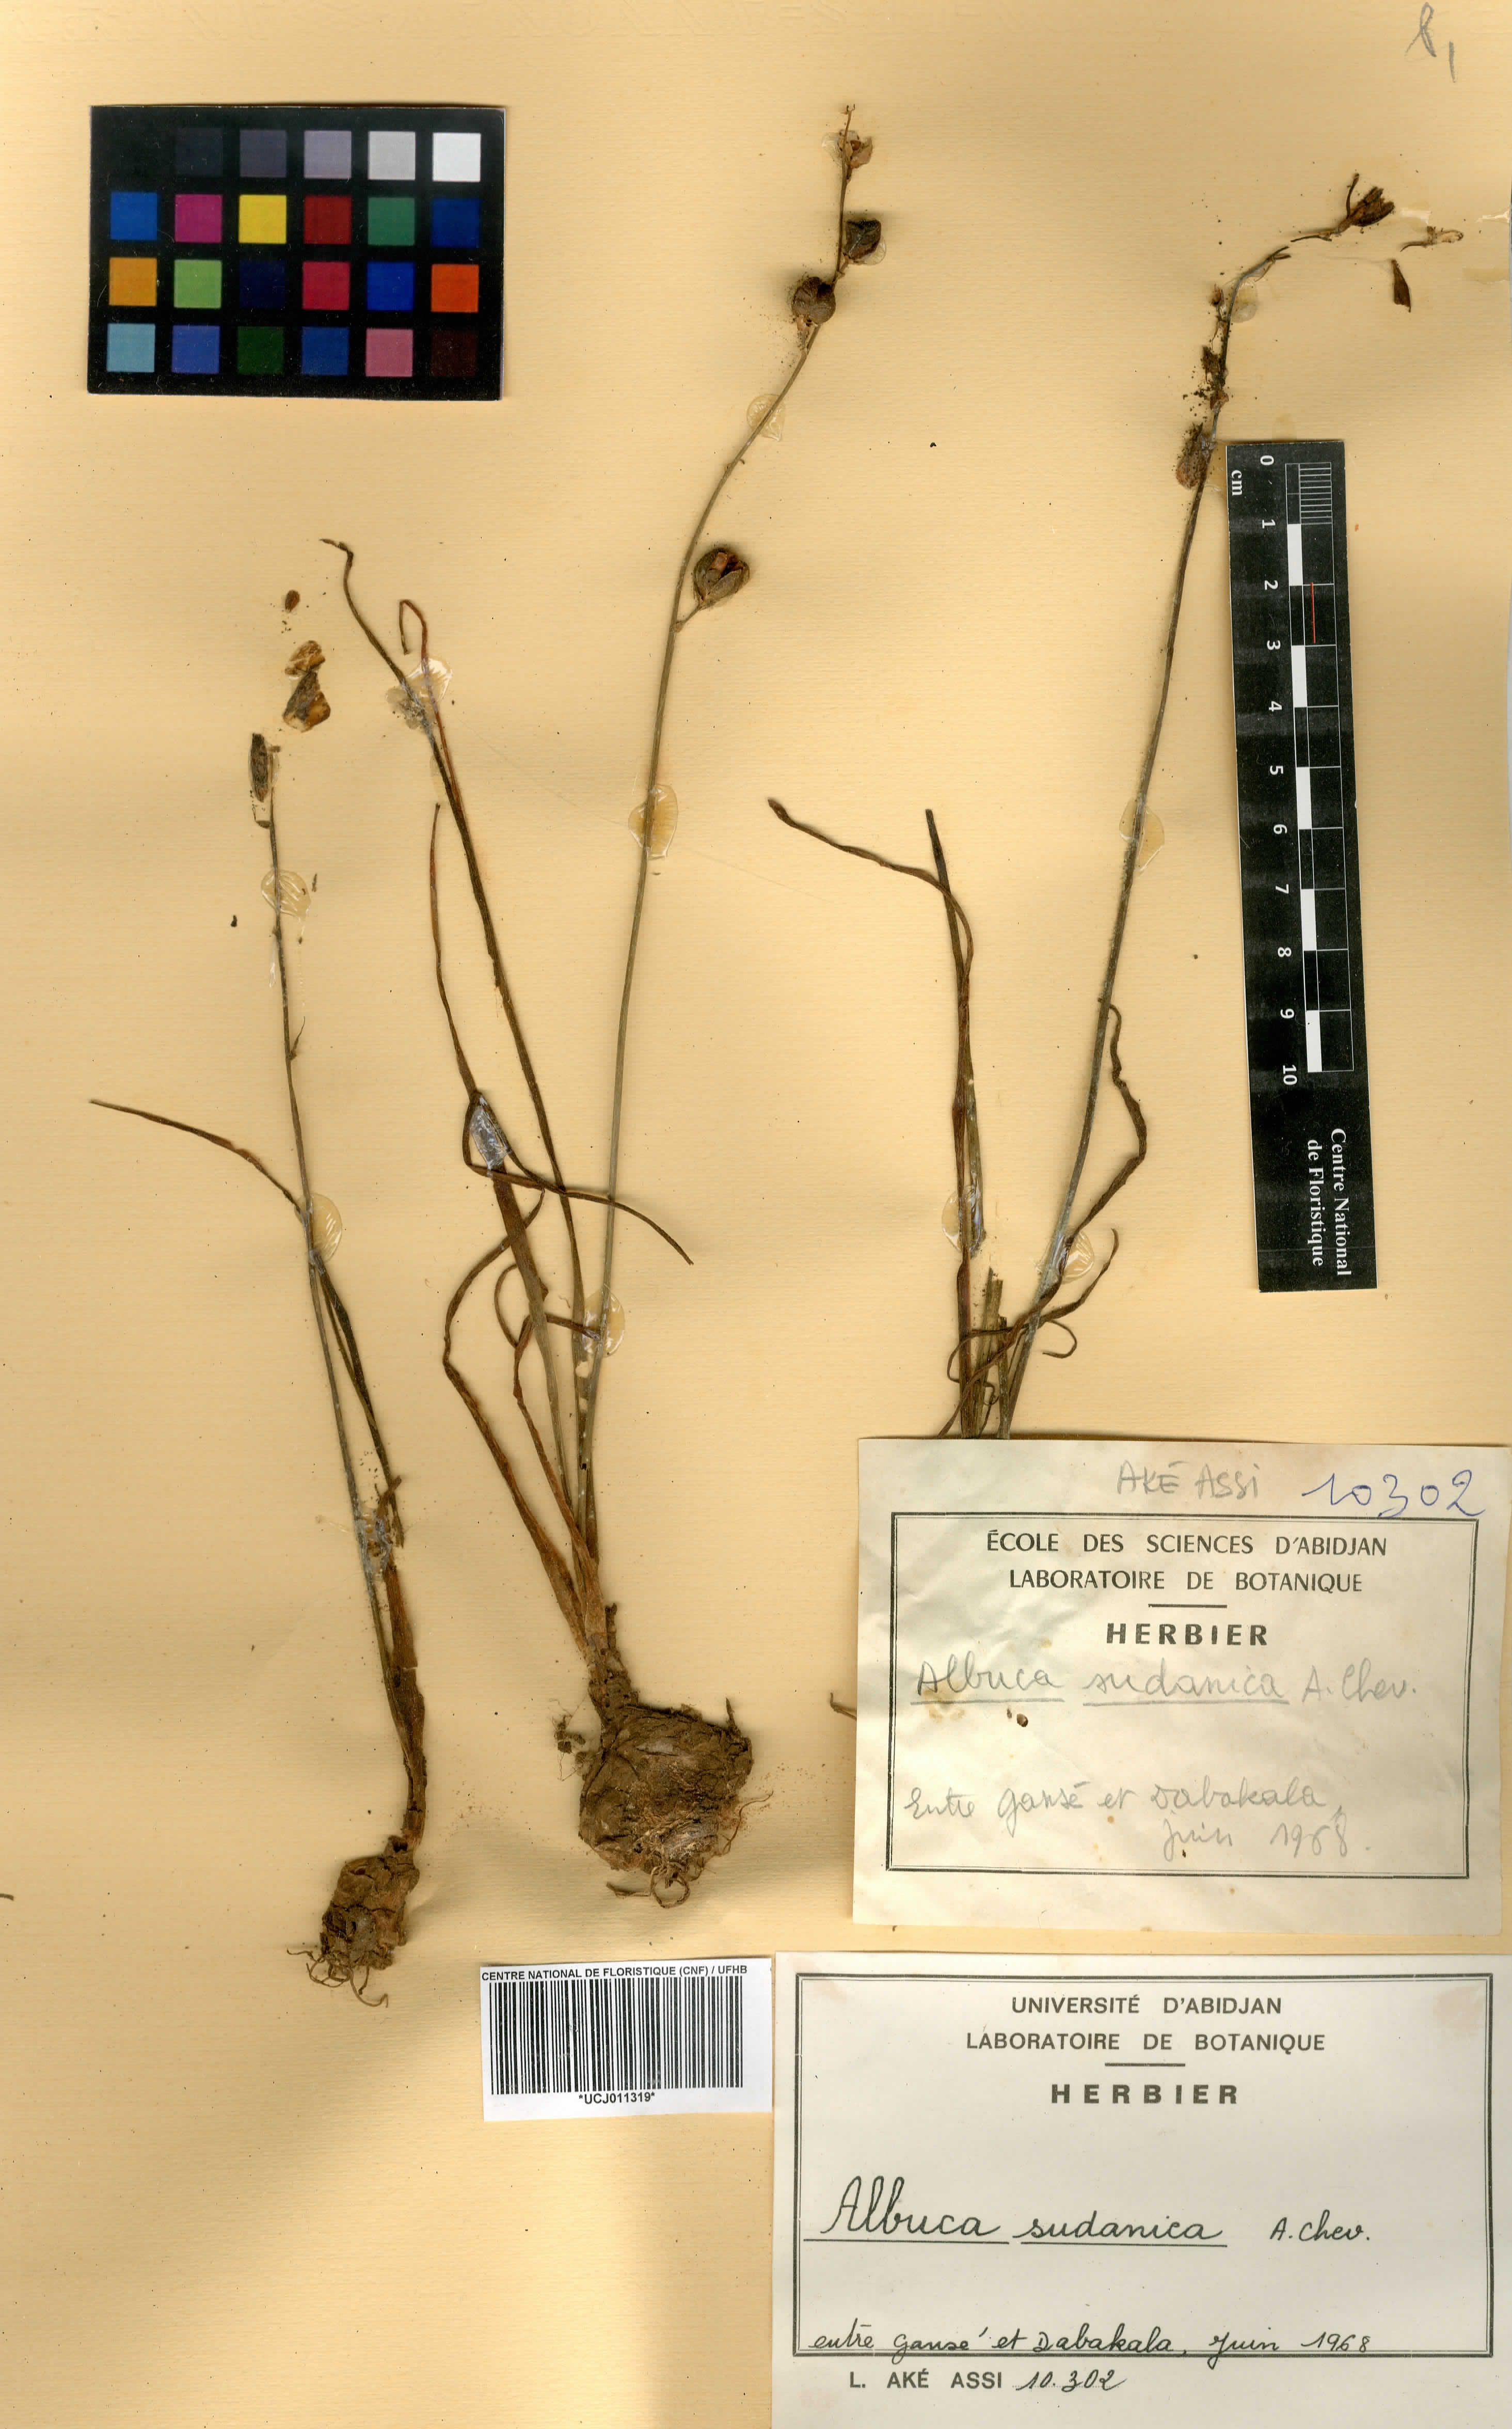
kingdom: Plantae
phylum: Tracheophyta
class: Liliopsida
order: Asparagales
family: Asparagaceae
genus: Albuca
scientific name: Albuca sudanica
